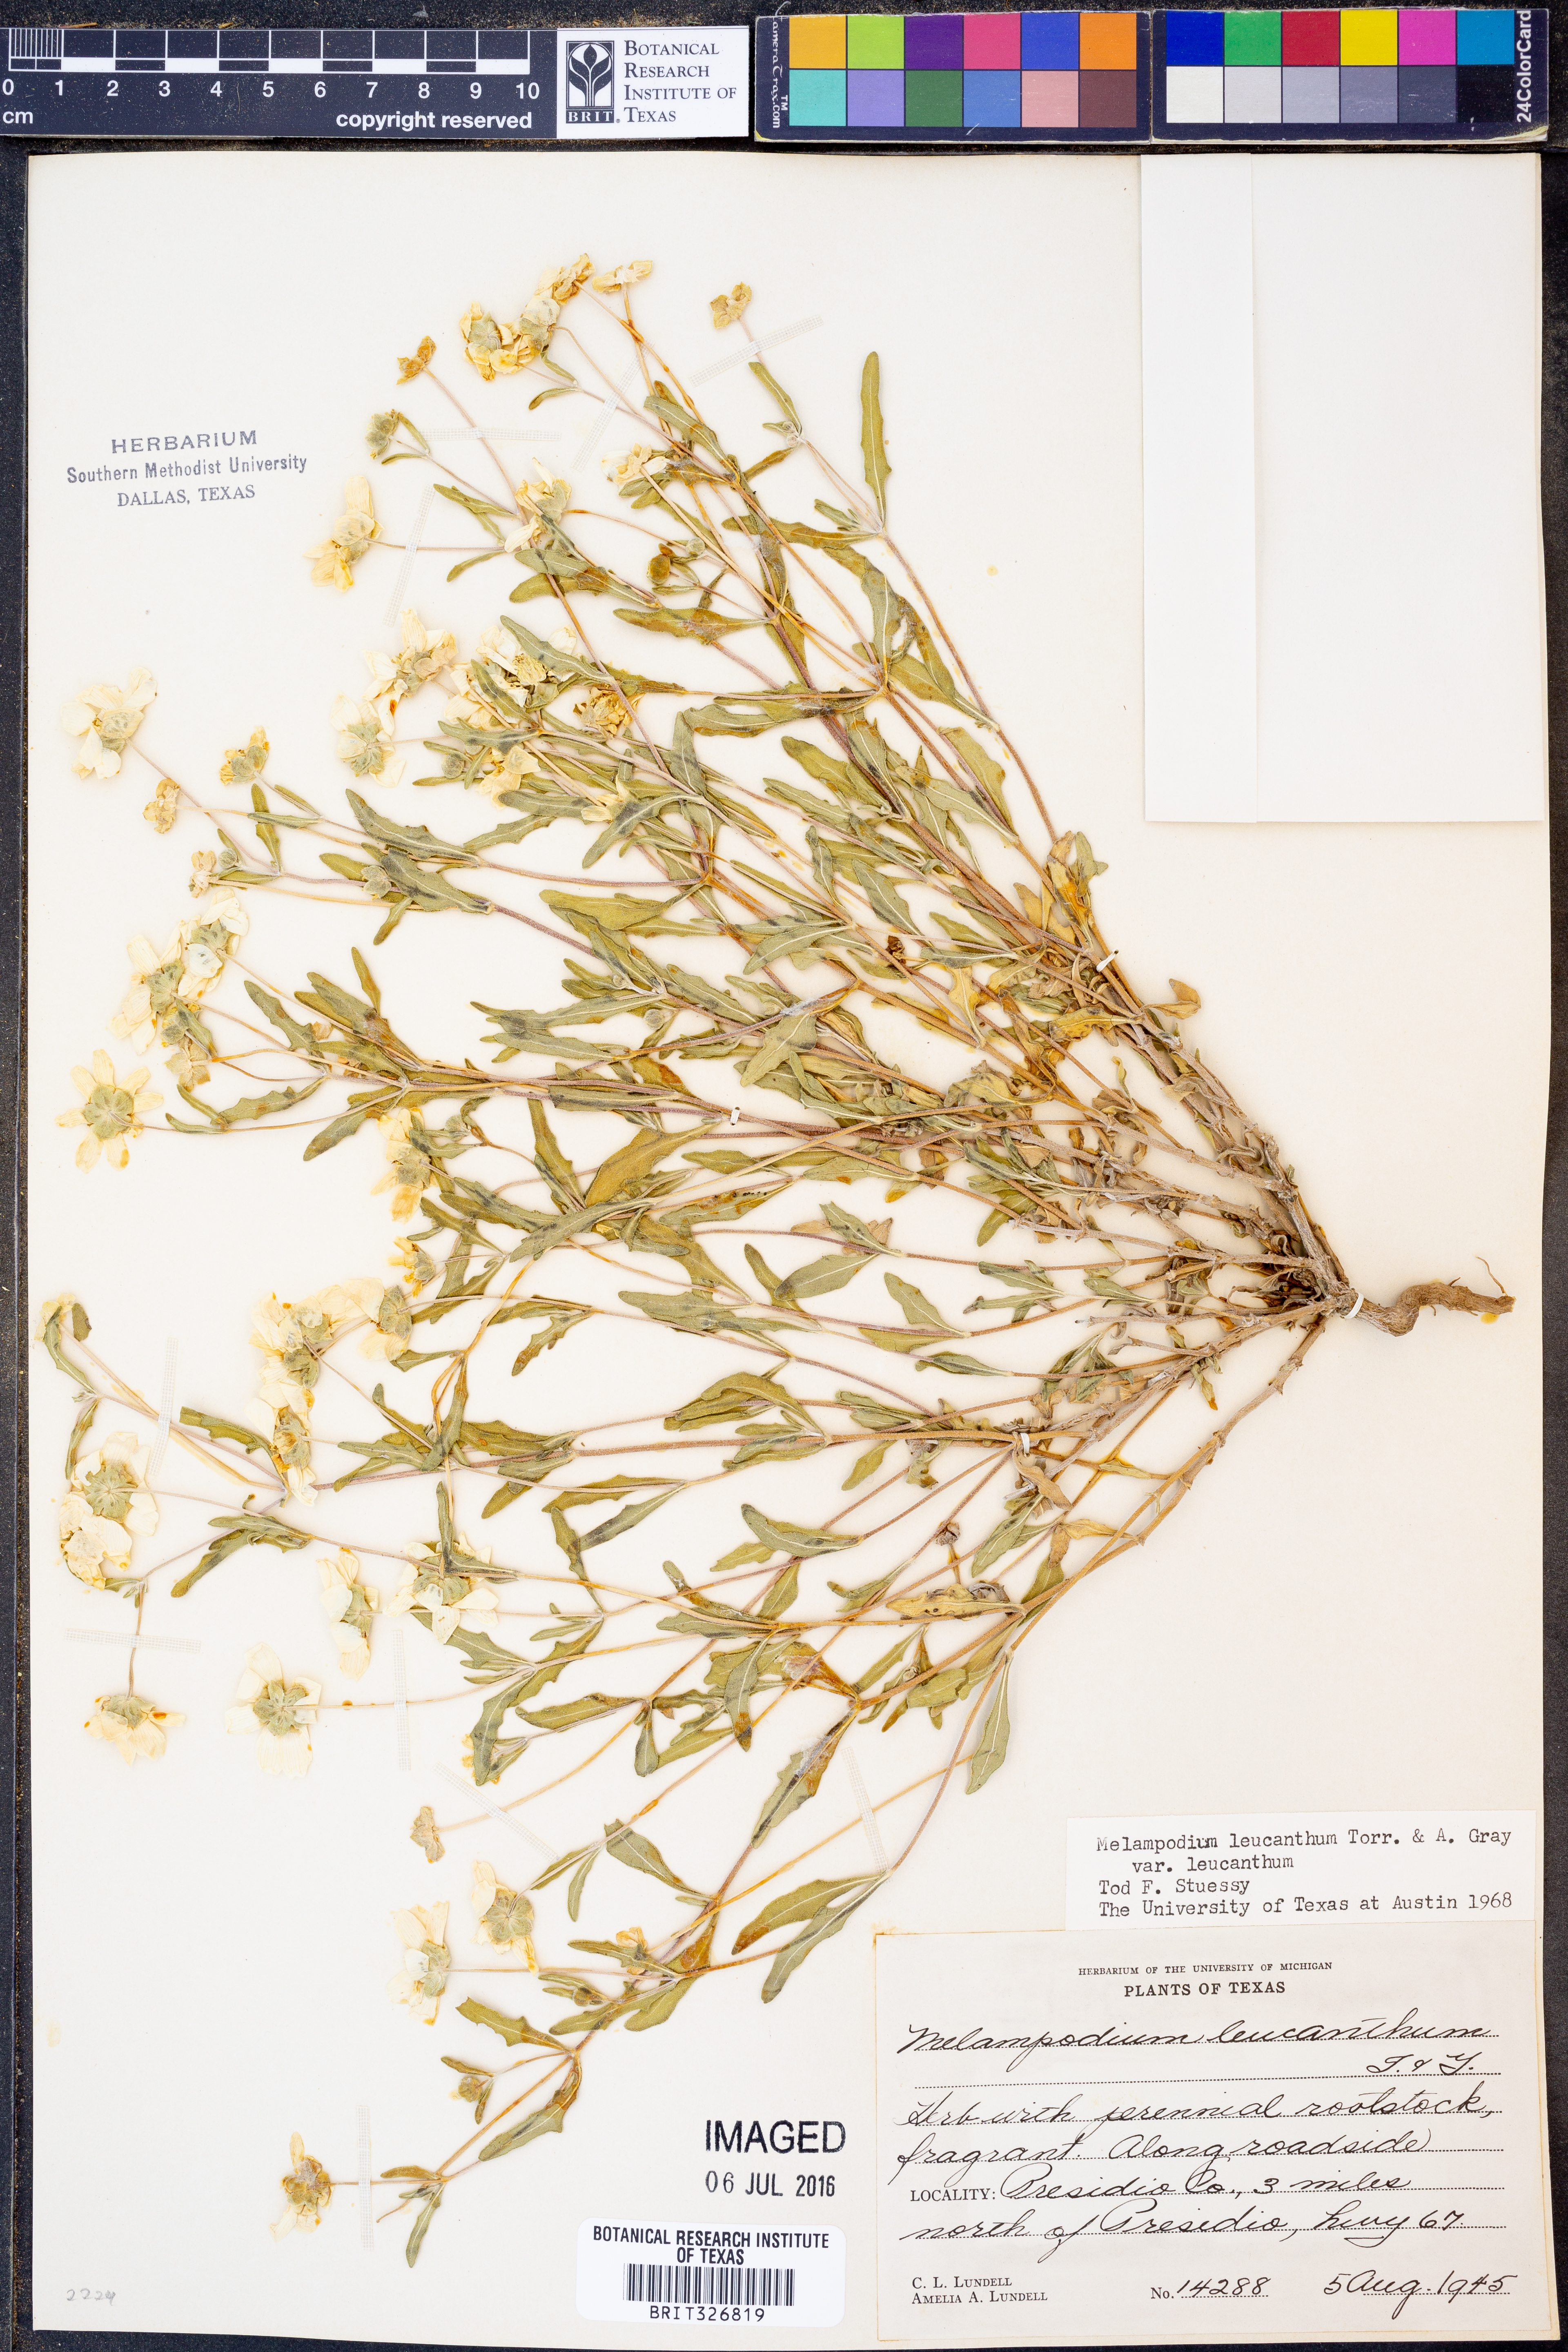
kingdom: Plantae
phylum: Tracheophyta
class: Magnoliopsida
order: Asterales
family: Asteraceae
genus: Melampodium
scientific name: Melampodium leucanthum
